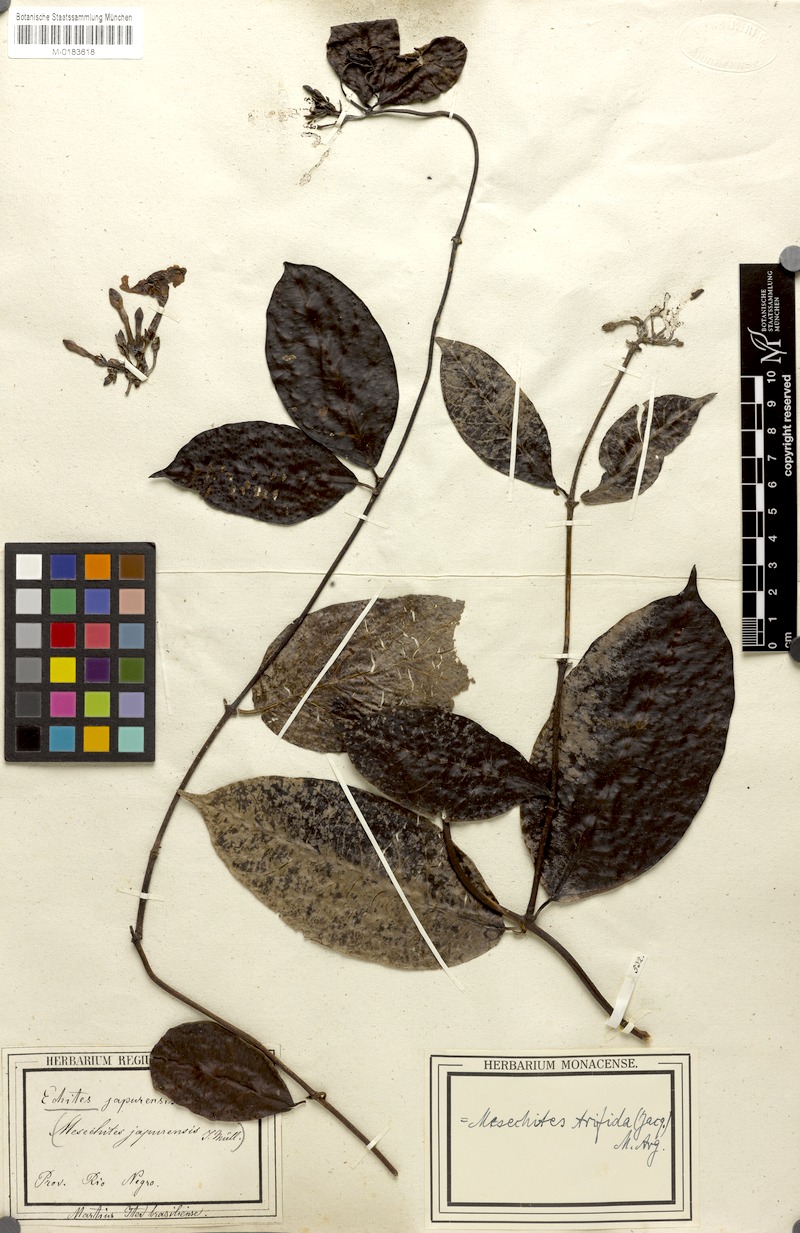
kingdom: Plantae
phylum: Tracheophyta
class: Magnoliopsida
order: Gentianales
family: Apocynaceae
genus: Mesechites
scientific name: Mesechites trifidus
